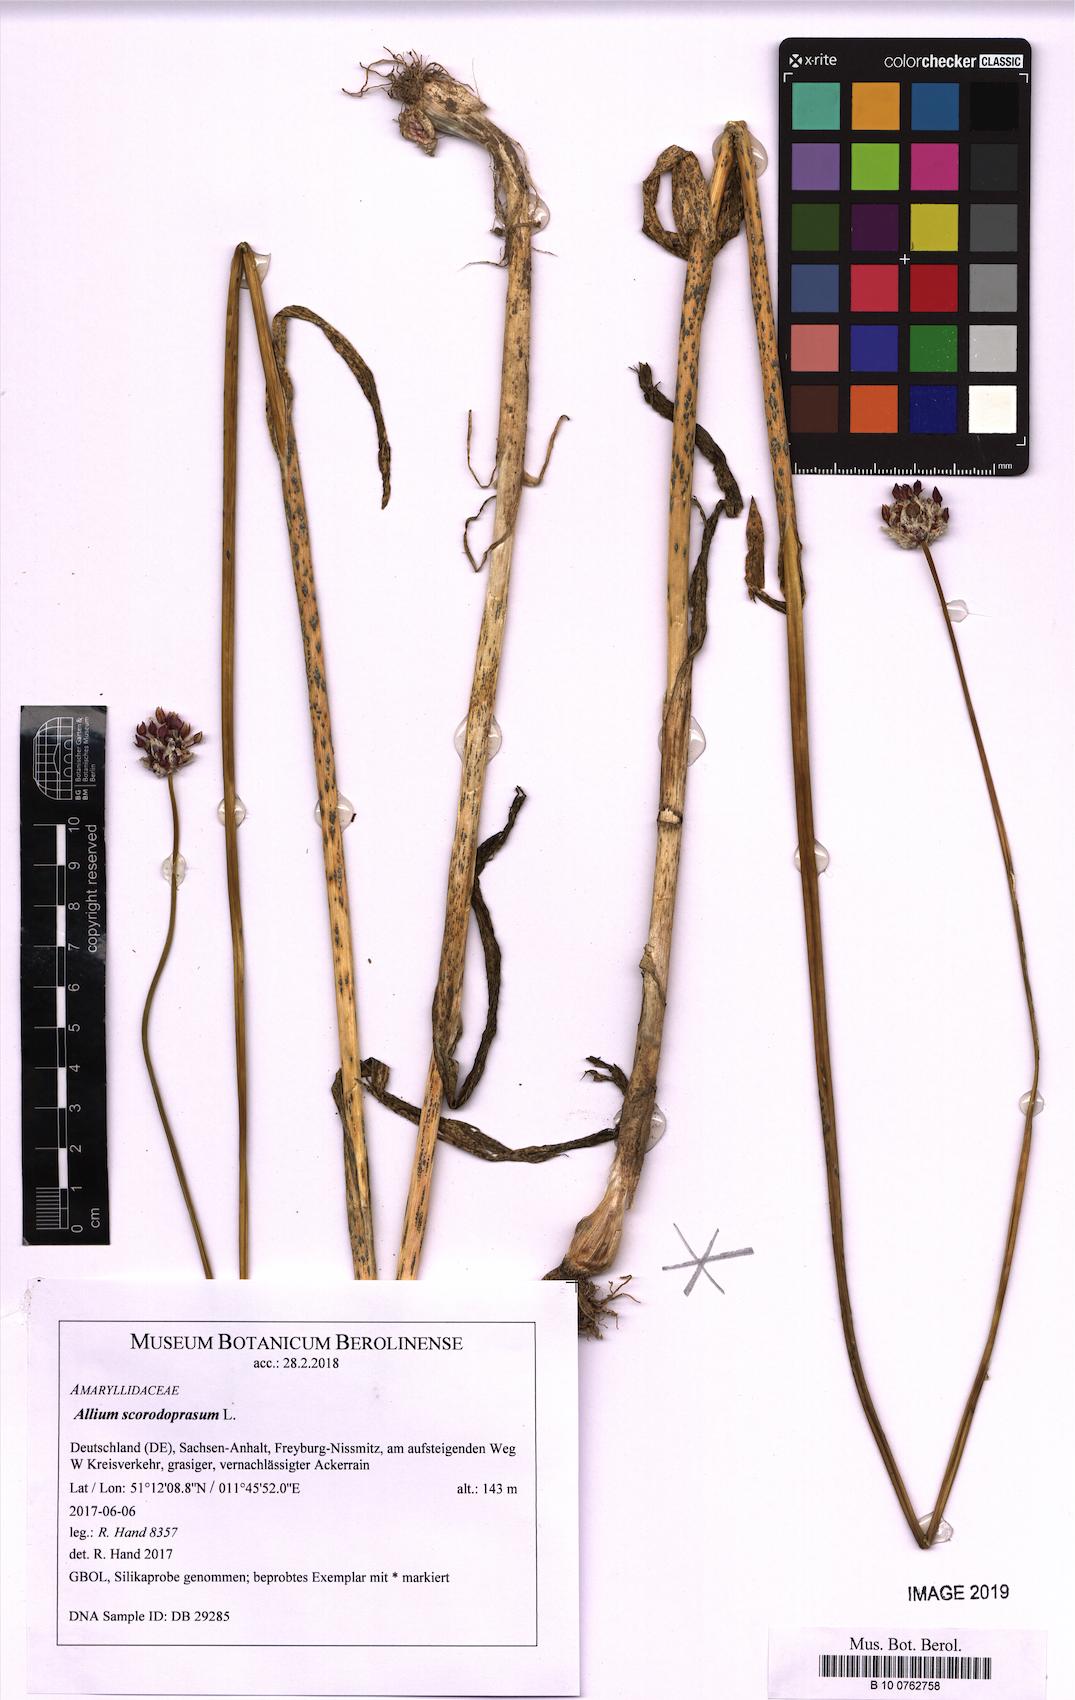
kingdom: Plantae
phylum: Tracheophyta
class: Liliopsida
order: Asparagales
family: Amaryllidaceae
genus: Allium
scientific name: Allium scorodoprasum
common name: Sand leek
